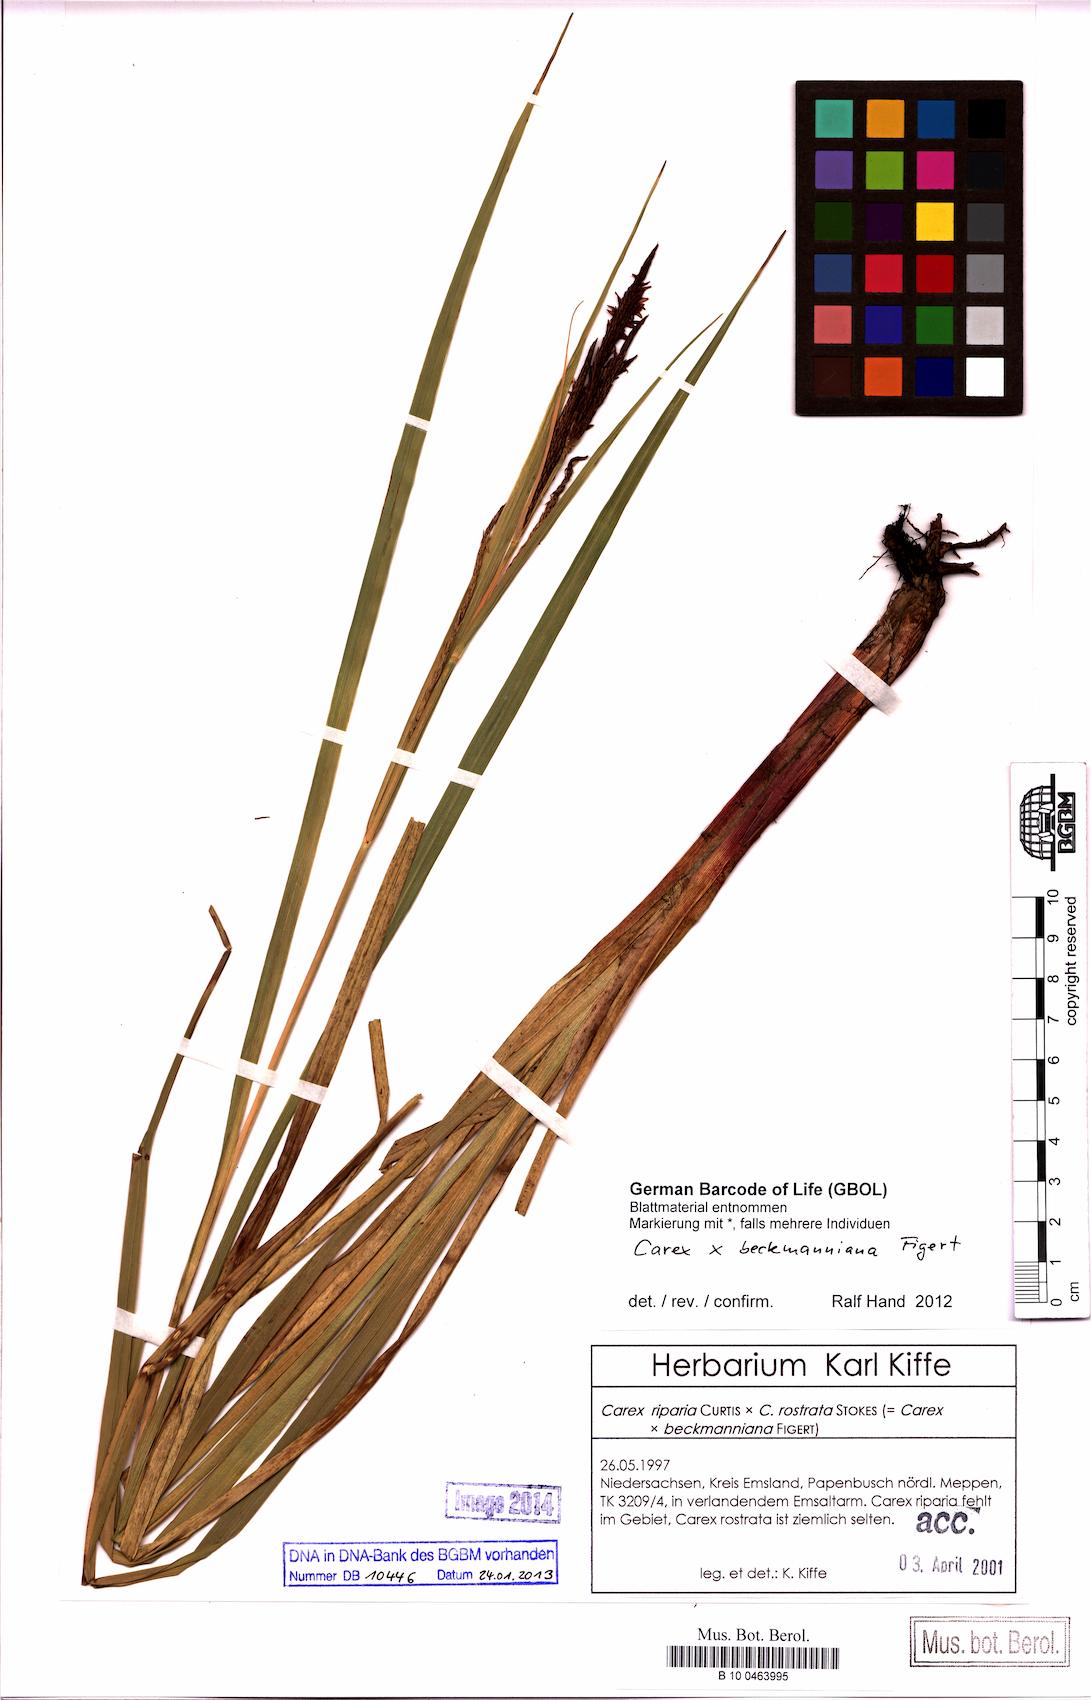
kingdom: Plantae
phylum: Tracheophyta
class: Liliopsida
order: Poales
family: Cyperaceae
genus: Carex
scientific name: Carex beckmanniana
